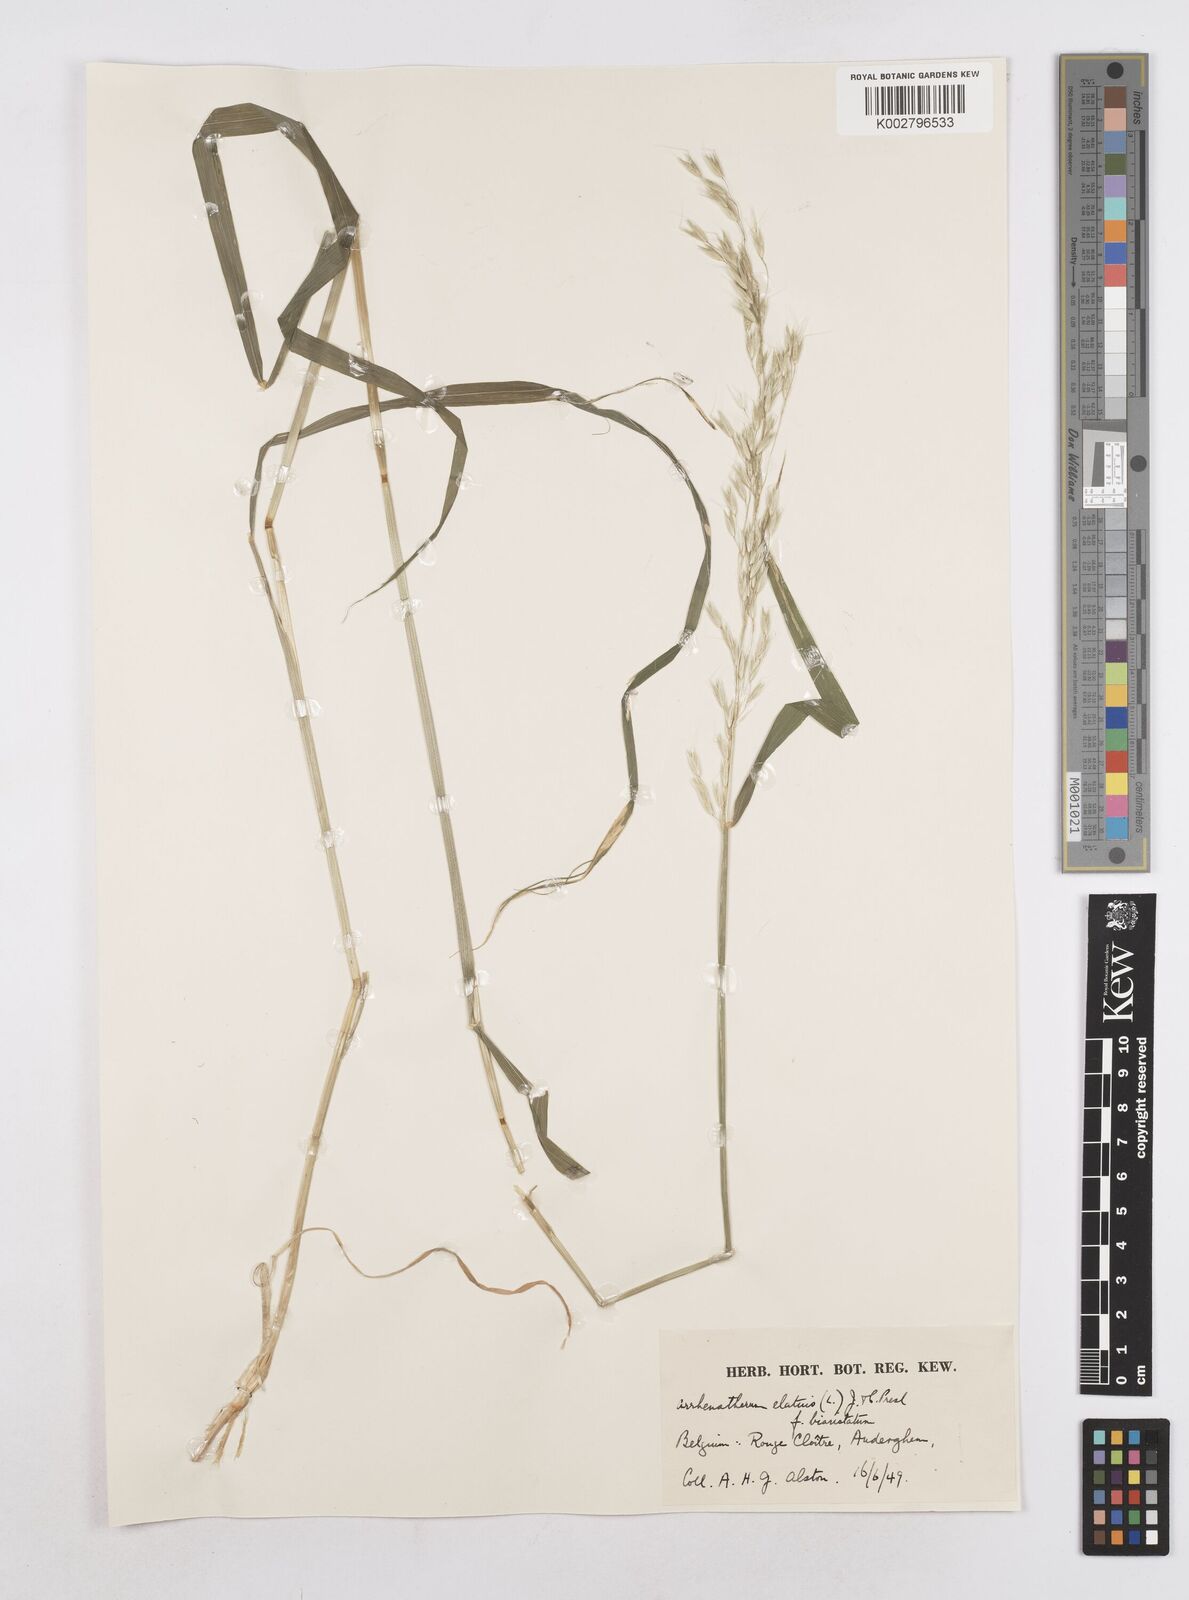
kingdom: Plantae
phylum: Tracheophyta
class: Liliopsida
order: Poales
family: Poaceae
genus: Arrhenatherum
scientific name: Arrhenatherum elatius
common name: Tall oatgrass
